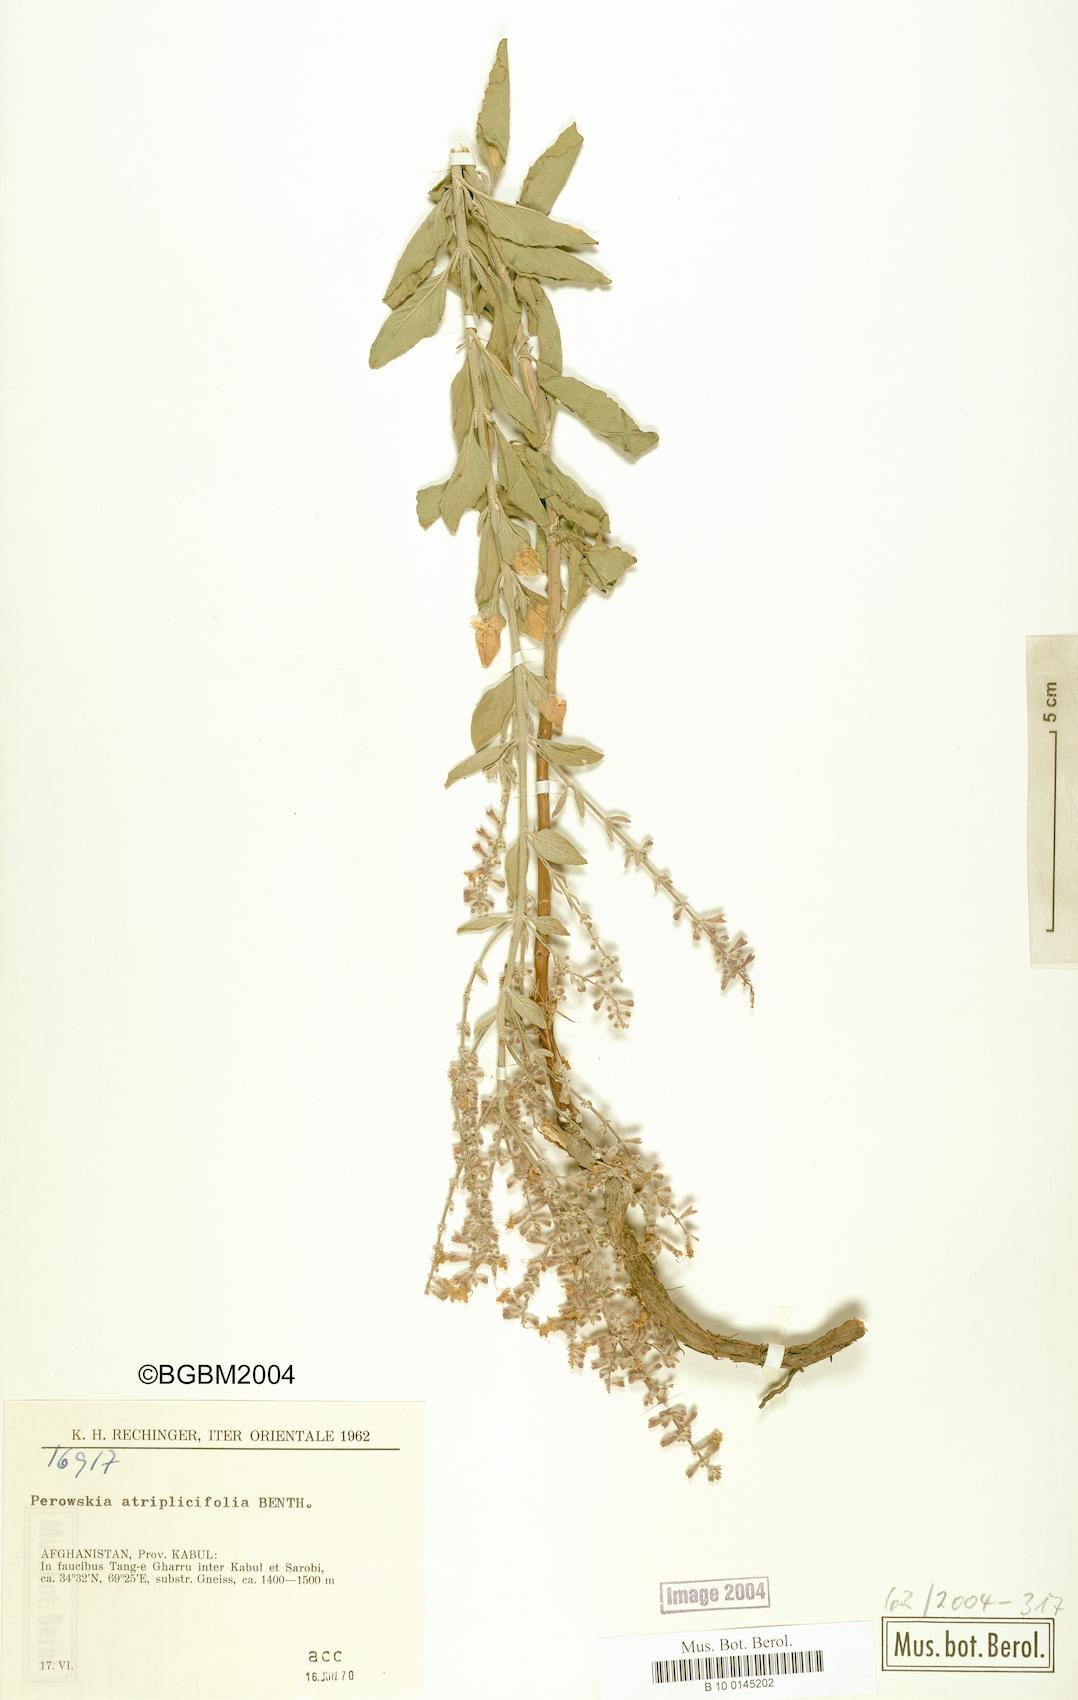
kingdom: Plantae
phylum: Tracheophyta
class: Magnoliopsida
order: Lamiales
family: Lamiaceae
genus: Salvia
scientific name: Salvia yangii
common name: Russian sage
